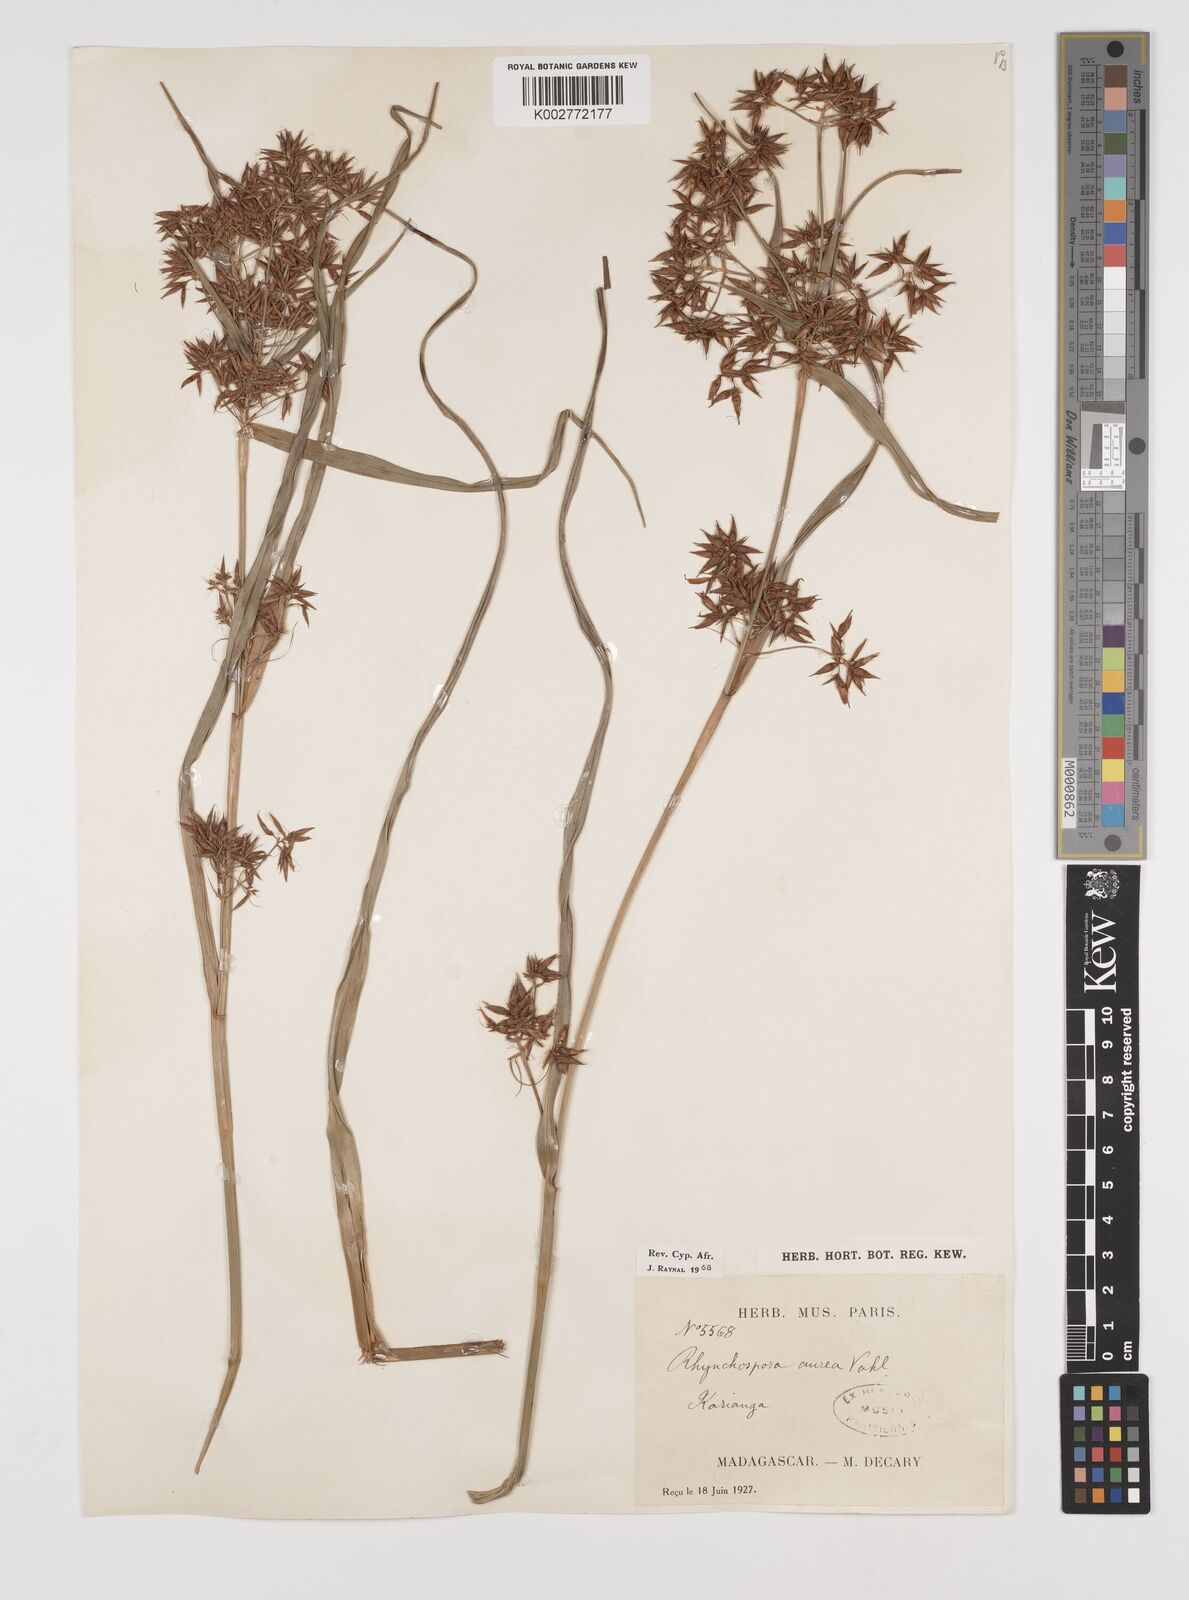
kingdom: Plantae
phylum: Tracheophyta
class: Liliopsida
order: Poales
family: Cyperaceae
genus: Rhynchospora
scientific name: Rhynchospora corymbosa
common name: Golden beak sedge
